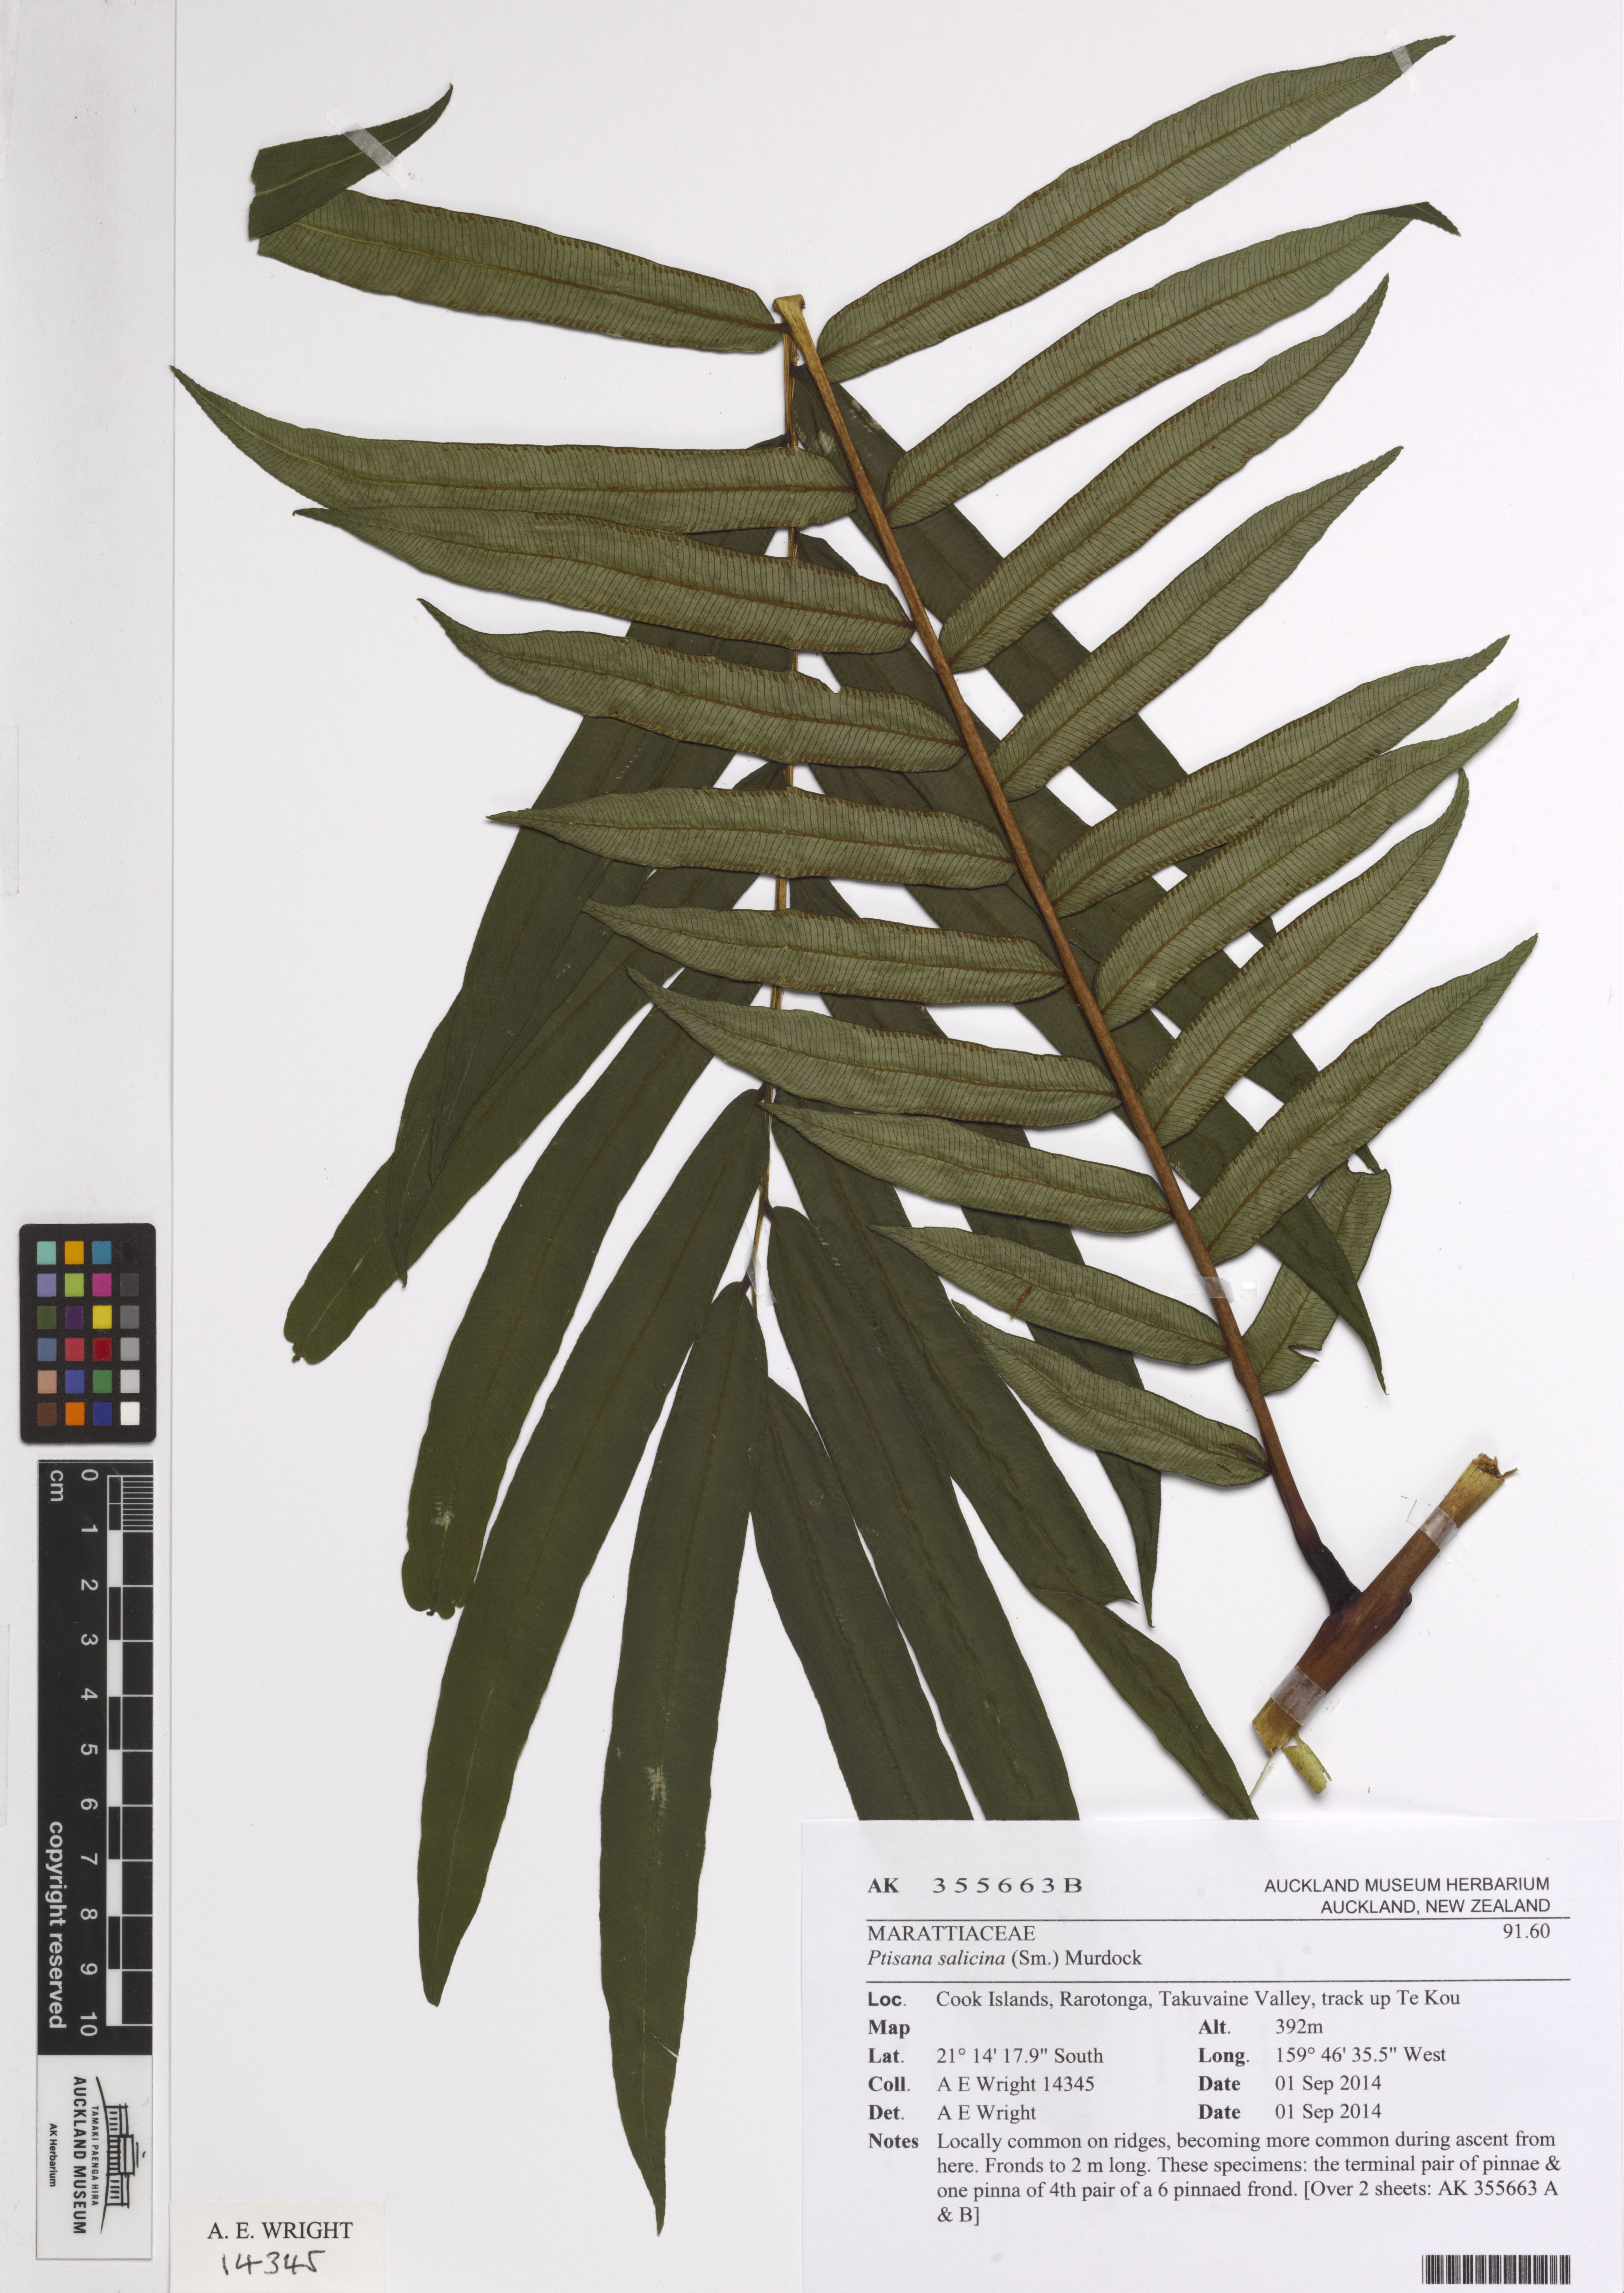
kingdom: Plantae
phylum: Tracheophyta
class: Polypodiopsida
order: Marattiales
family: Marattiaceae
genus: Ptisana
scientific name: Ptisana salicina
